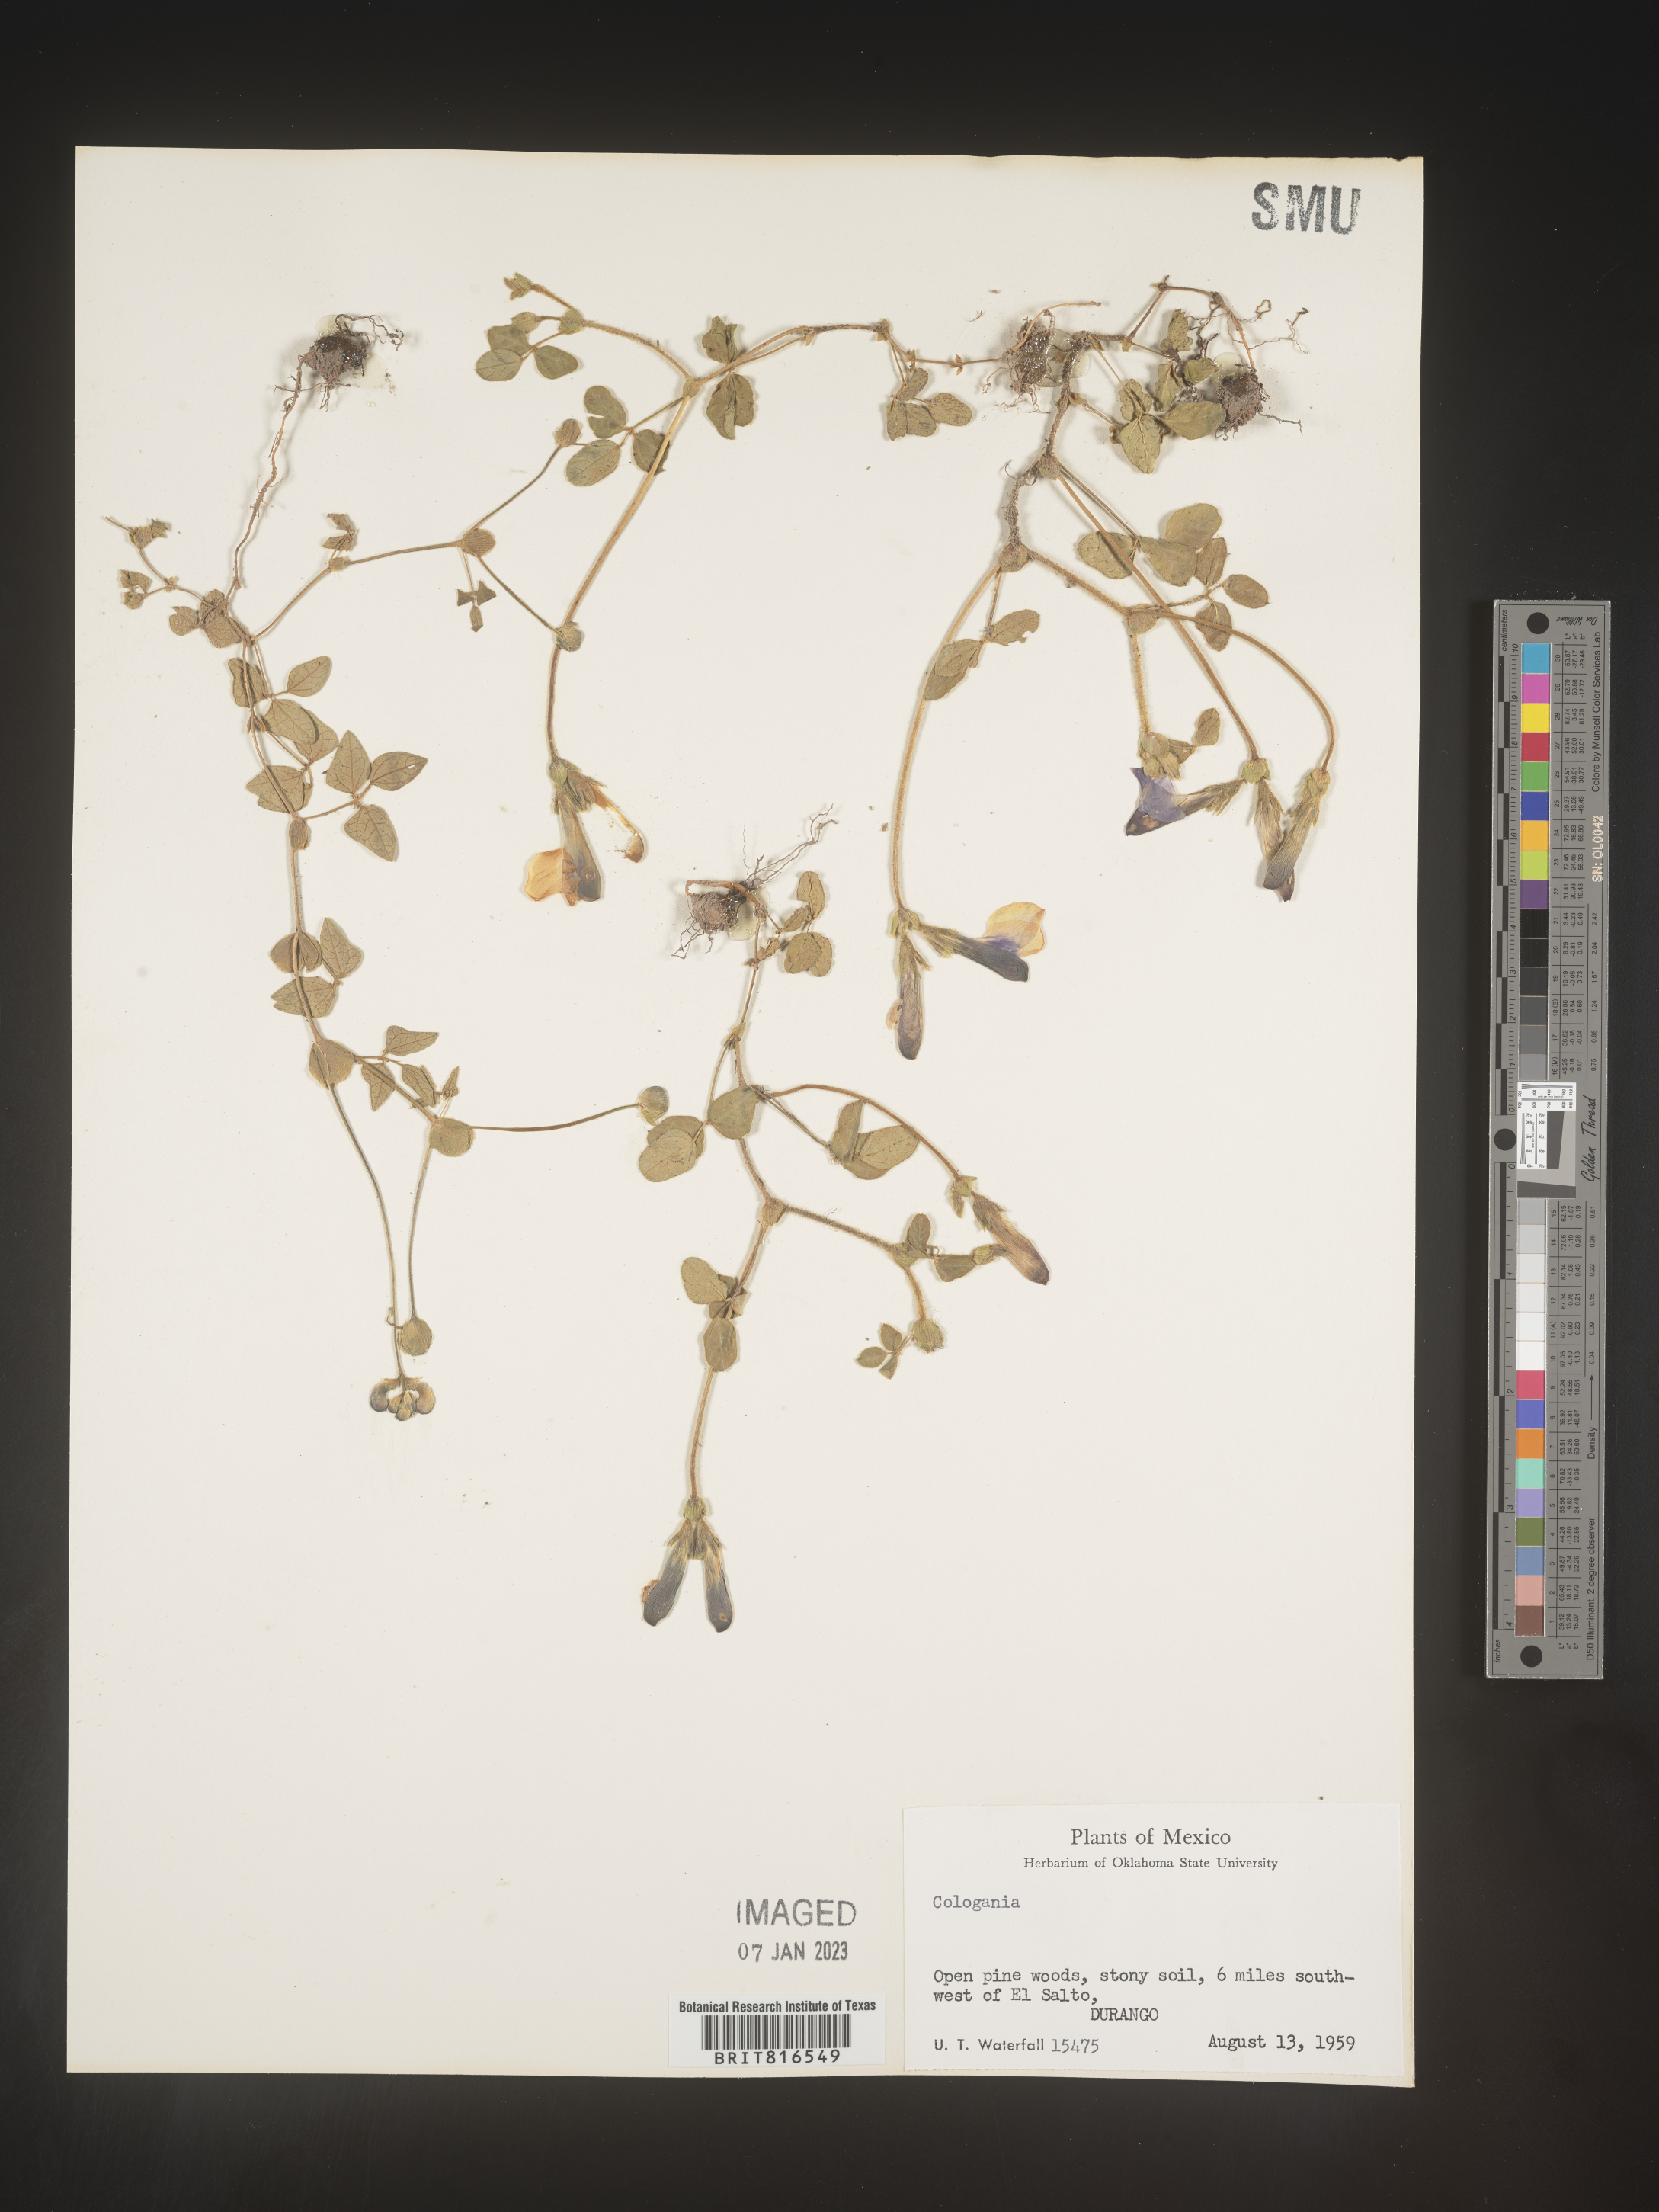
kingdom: Plantae
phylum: Tracheophyta
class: Magnoliopsida
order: Fabales
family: Fabaceae
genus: Cologania
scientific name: Cologania obovata
